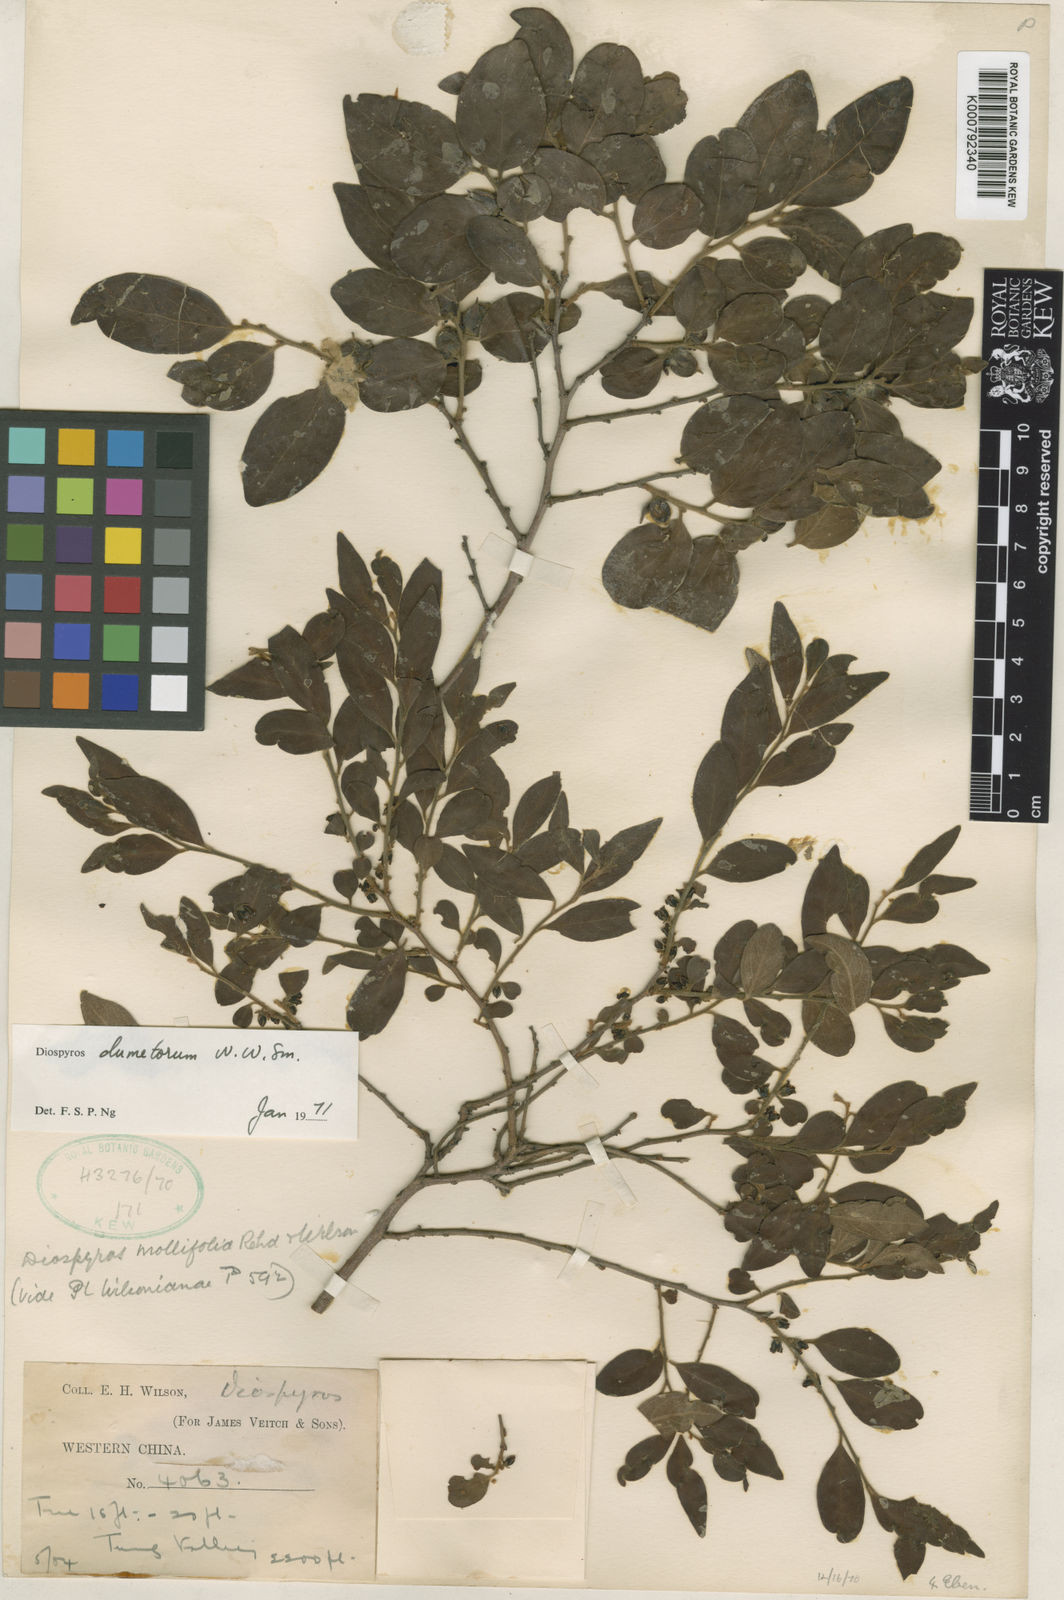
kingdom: Plantae
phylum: Tracheophyta
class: Magnoliopsida
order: Ericales
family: Ebenaceae
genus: Diospyros
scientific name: Diospyros dumetorum
